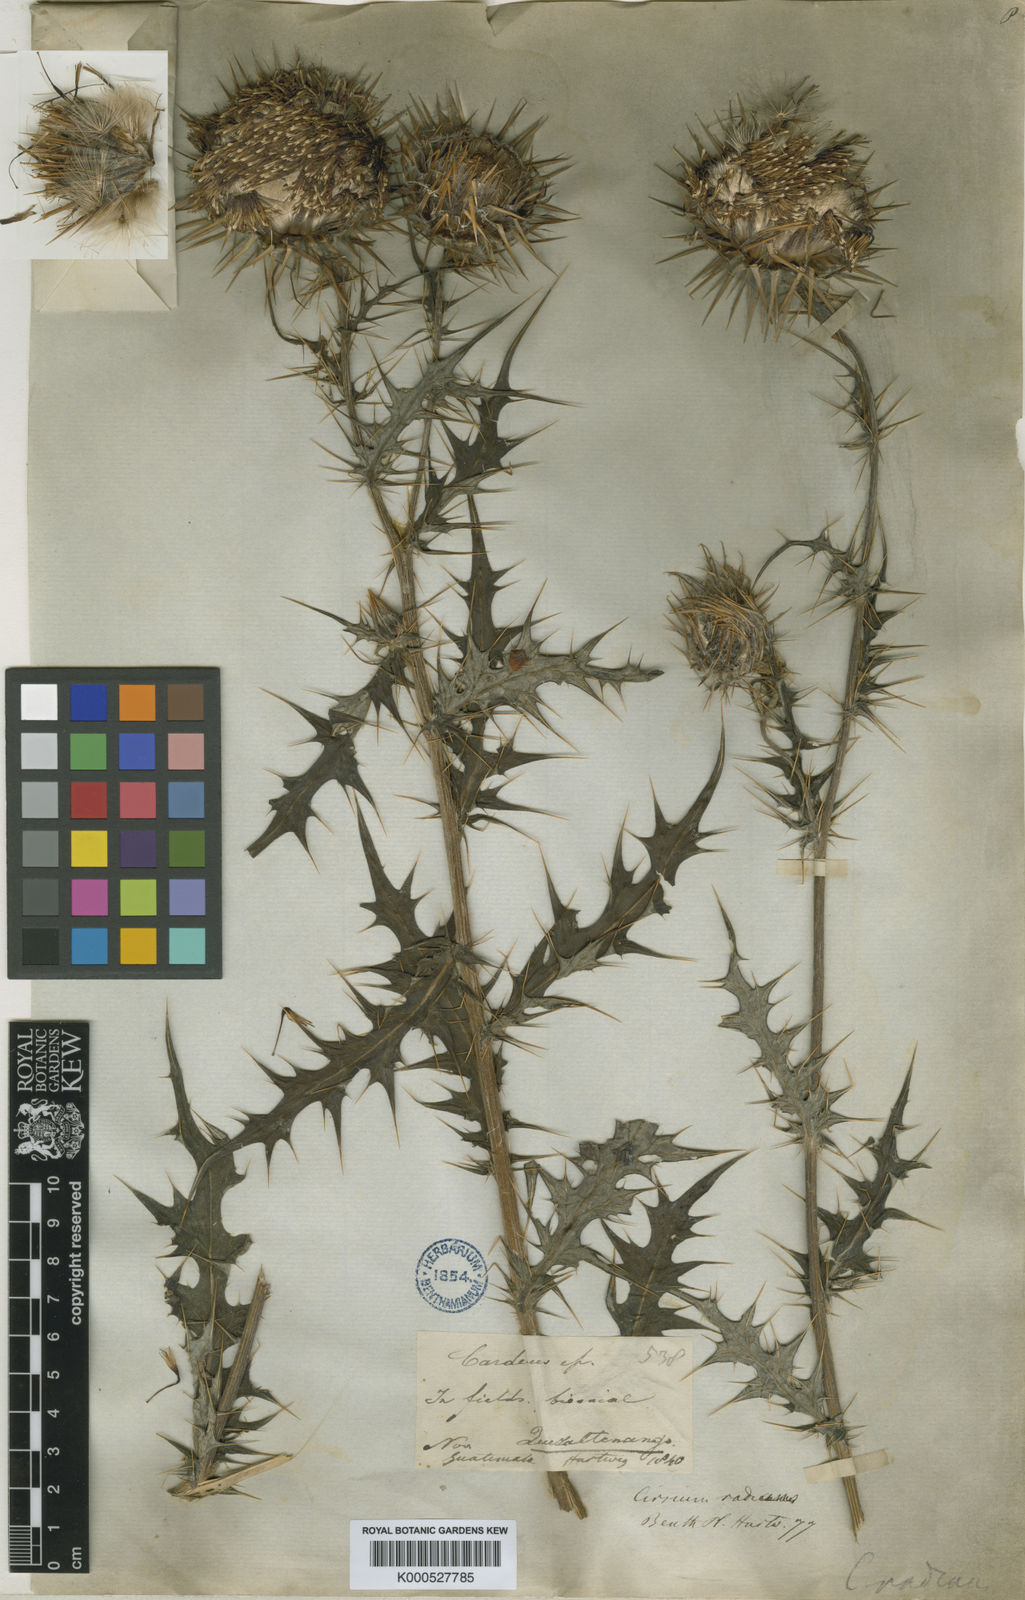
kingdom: Plantae
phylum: Tracheophyta
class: Magnoliopsida
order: Asterales
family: Asteraceae
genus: Cirsium
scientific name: Cirsium radians
